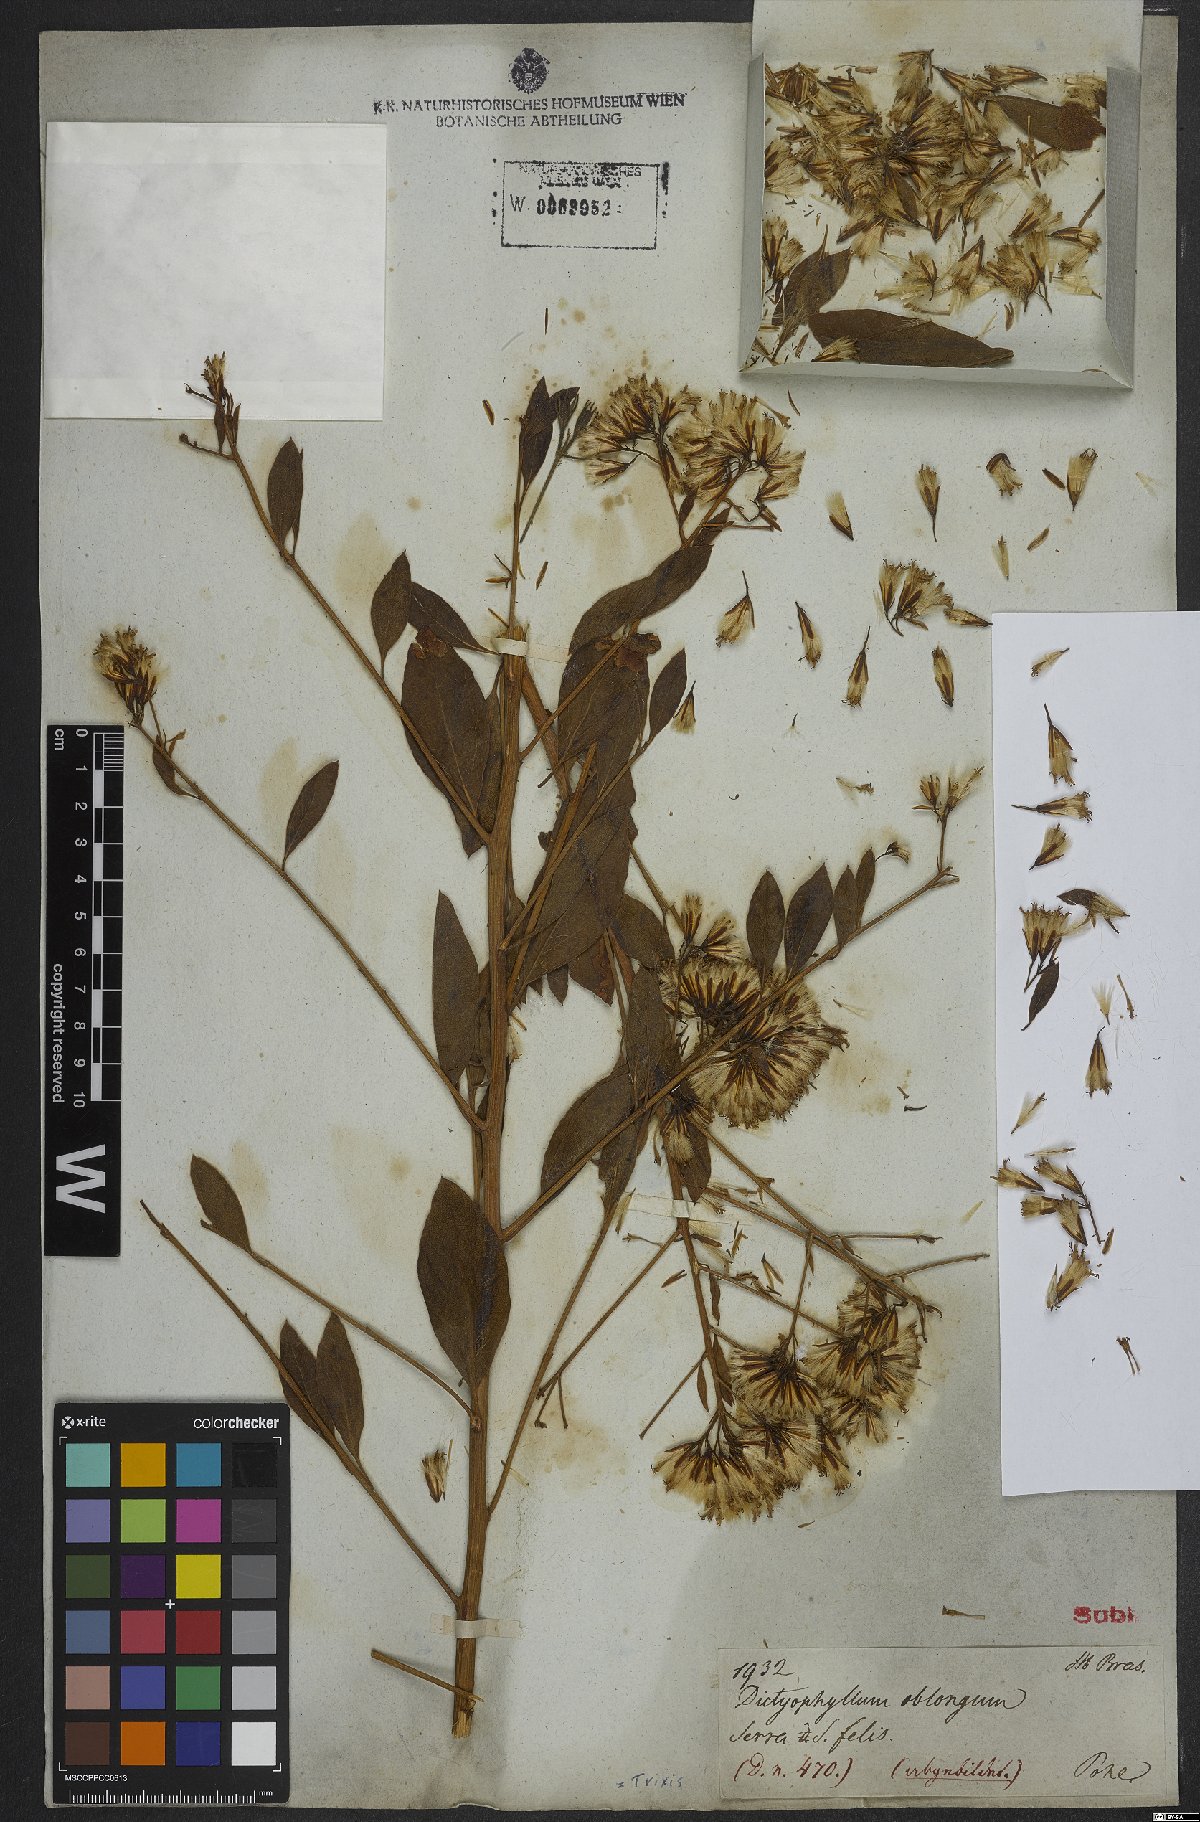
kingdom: Plantae
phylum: Tracheophyta
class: Magnoliopsida
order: Asterales
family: Asteraceae
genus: Trixis
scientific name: Trixis
